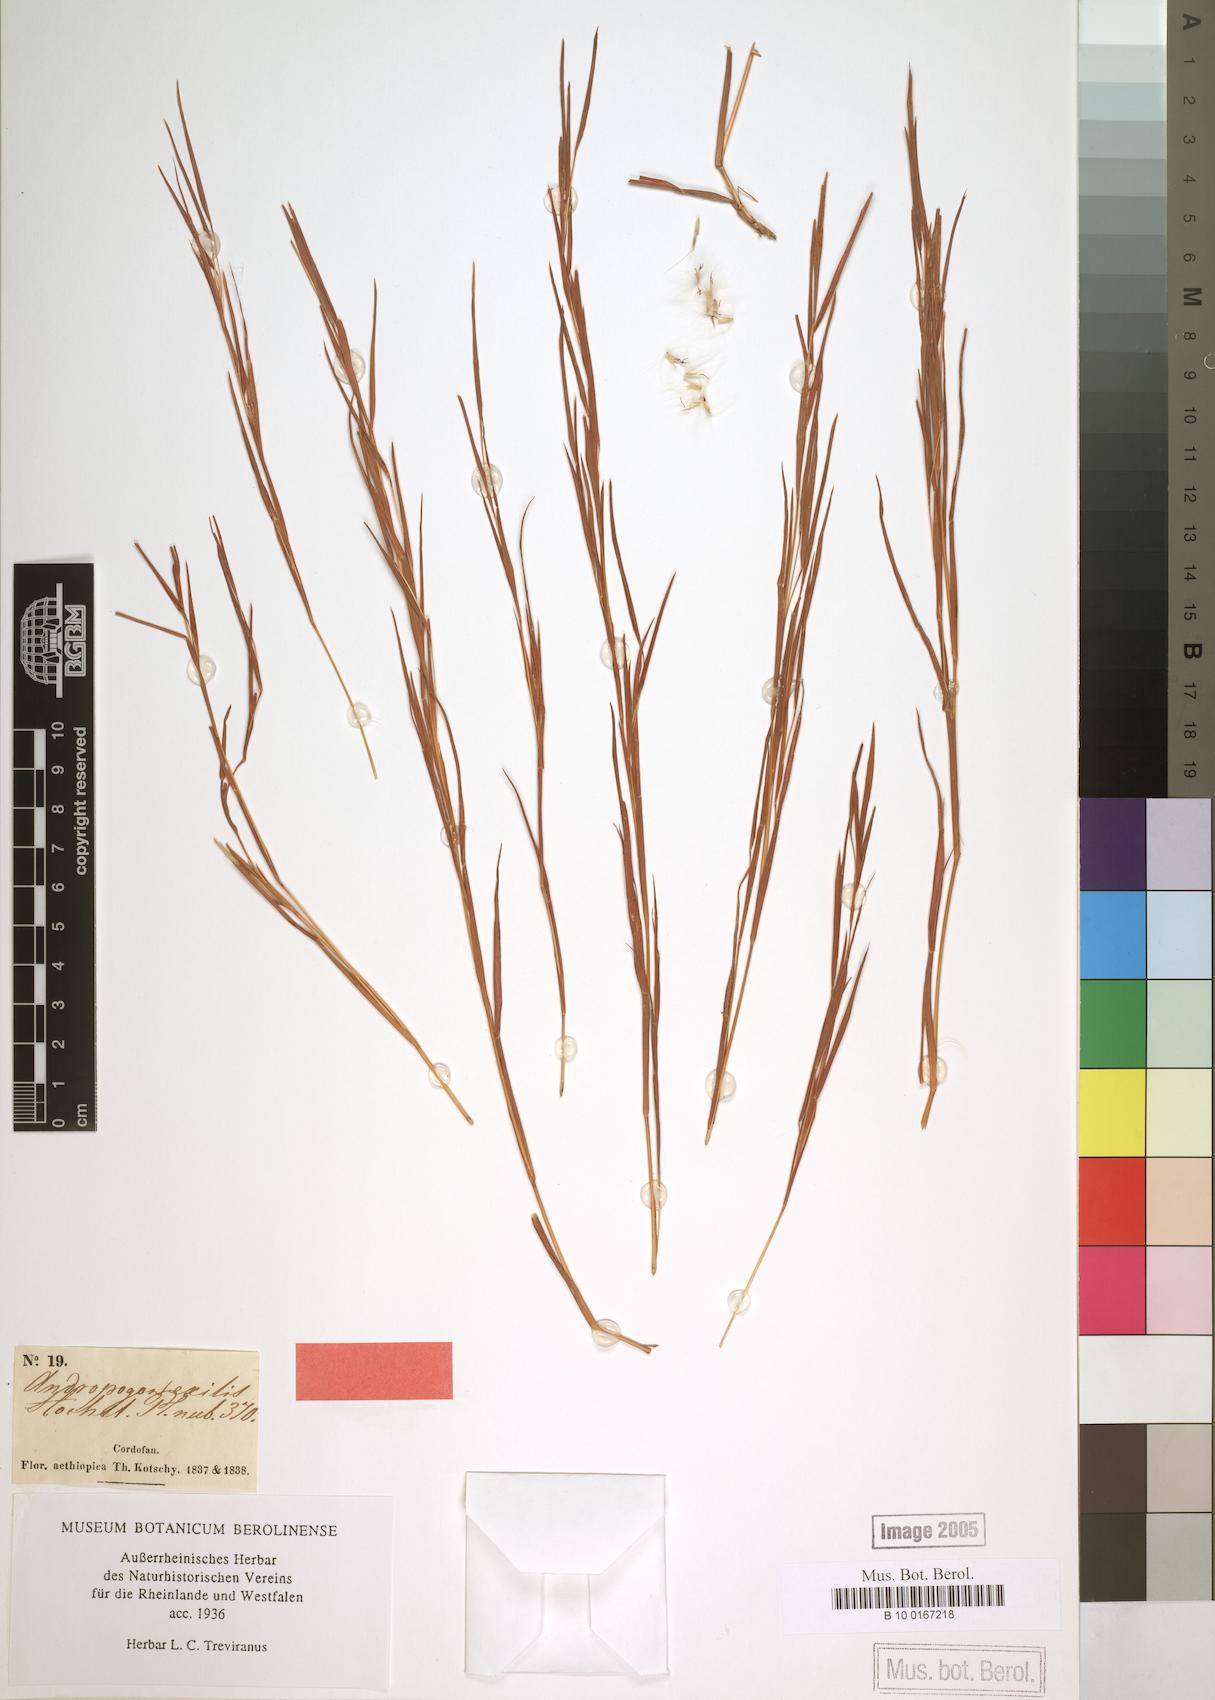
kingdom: Plantae
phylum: Tracheophyta
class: Liliopsida
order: Poales
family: Poaceae
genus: Schizachyrium
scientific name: Schizachyrium exile
